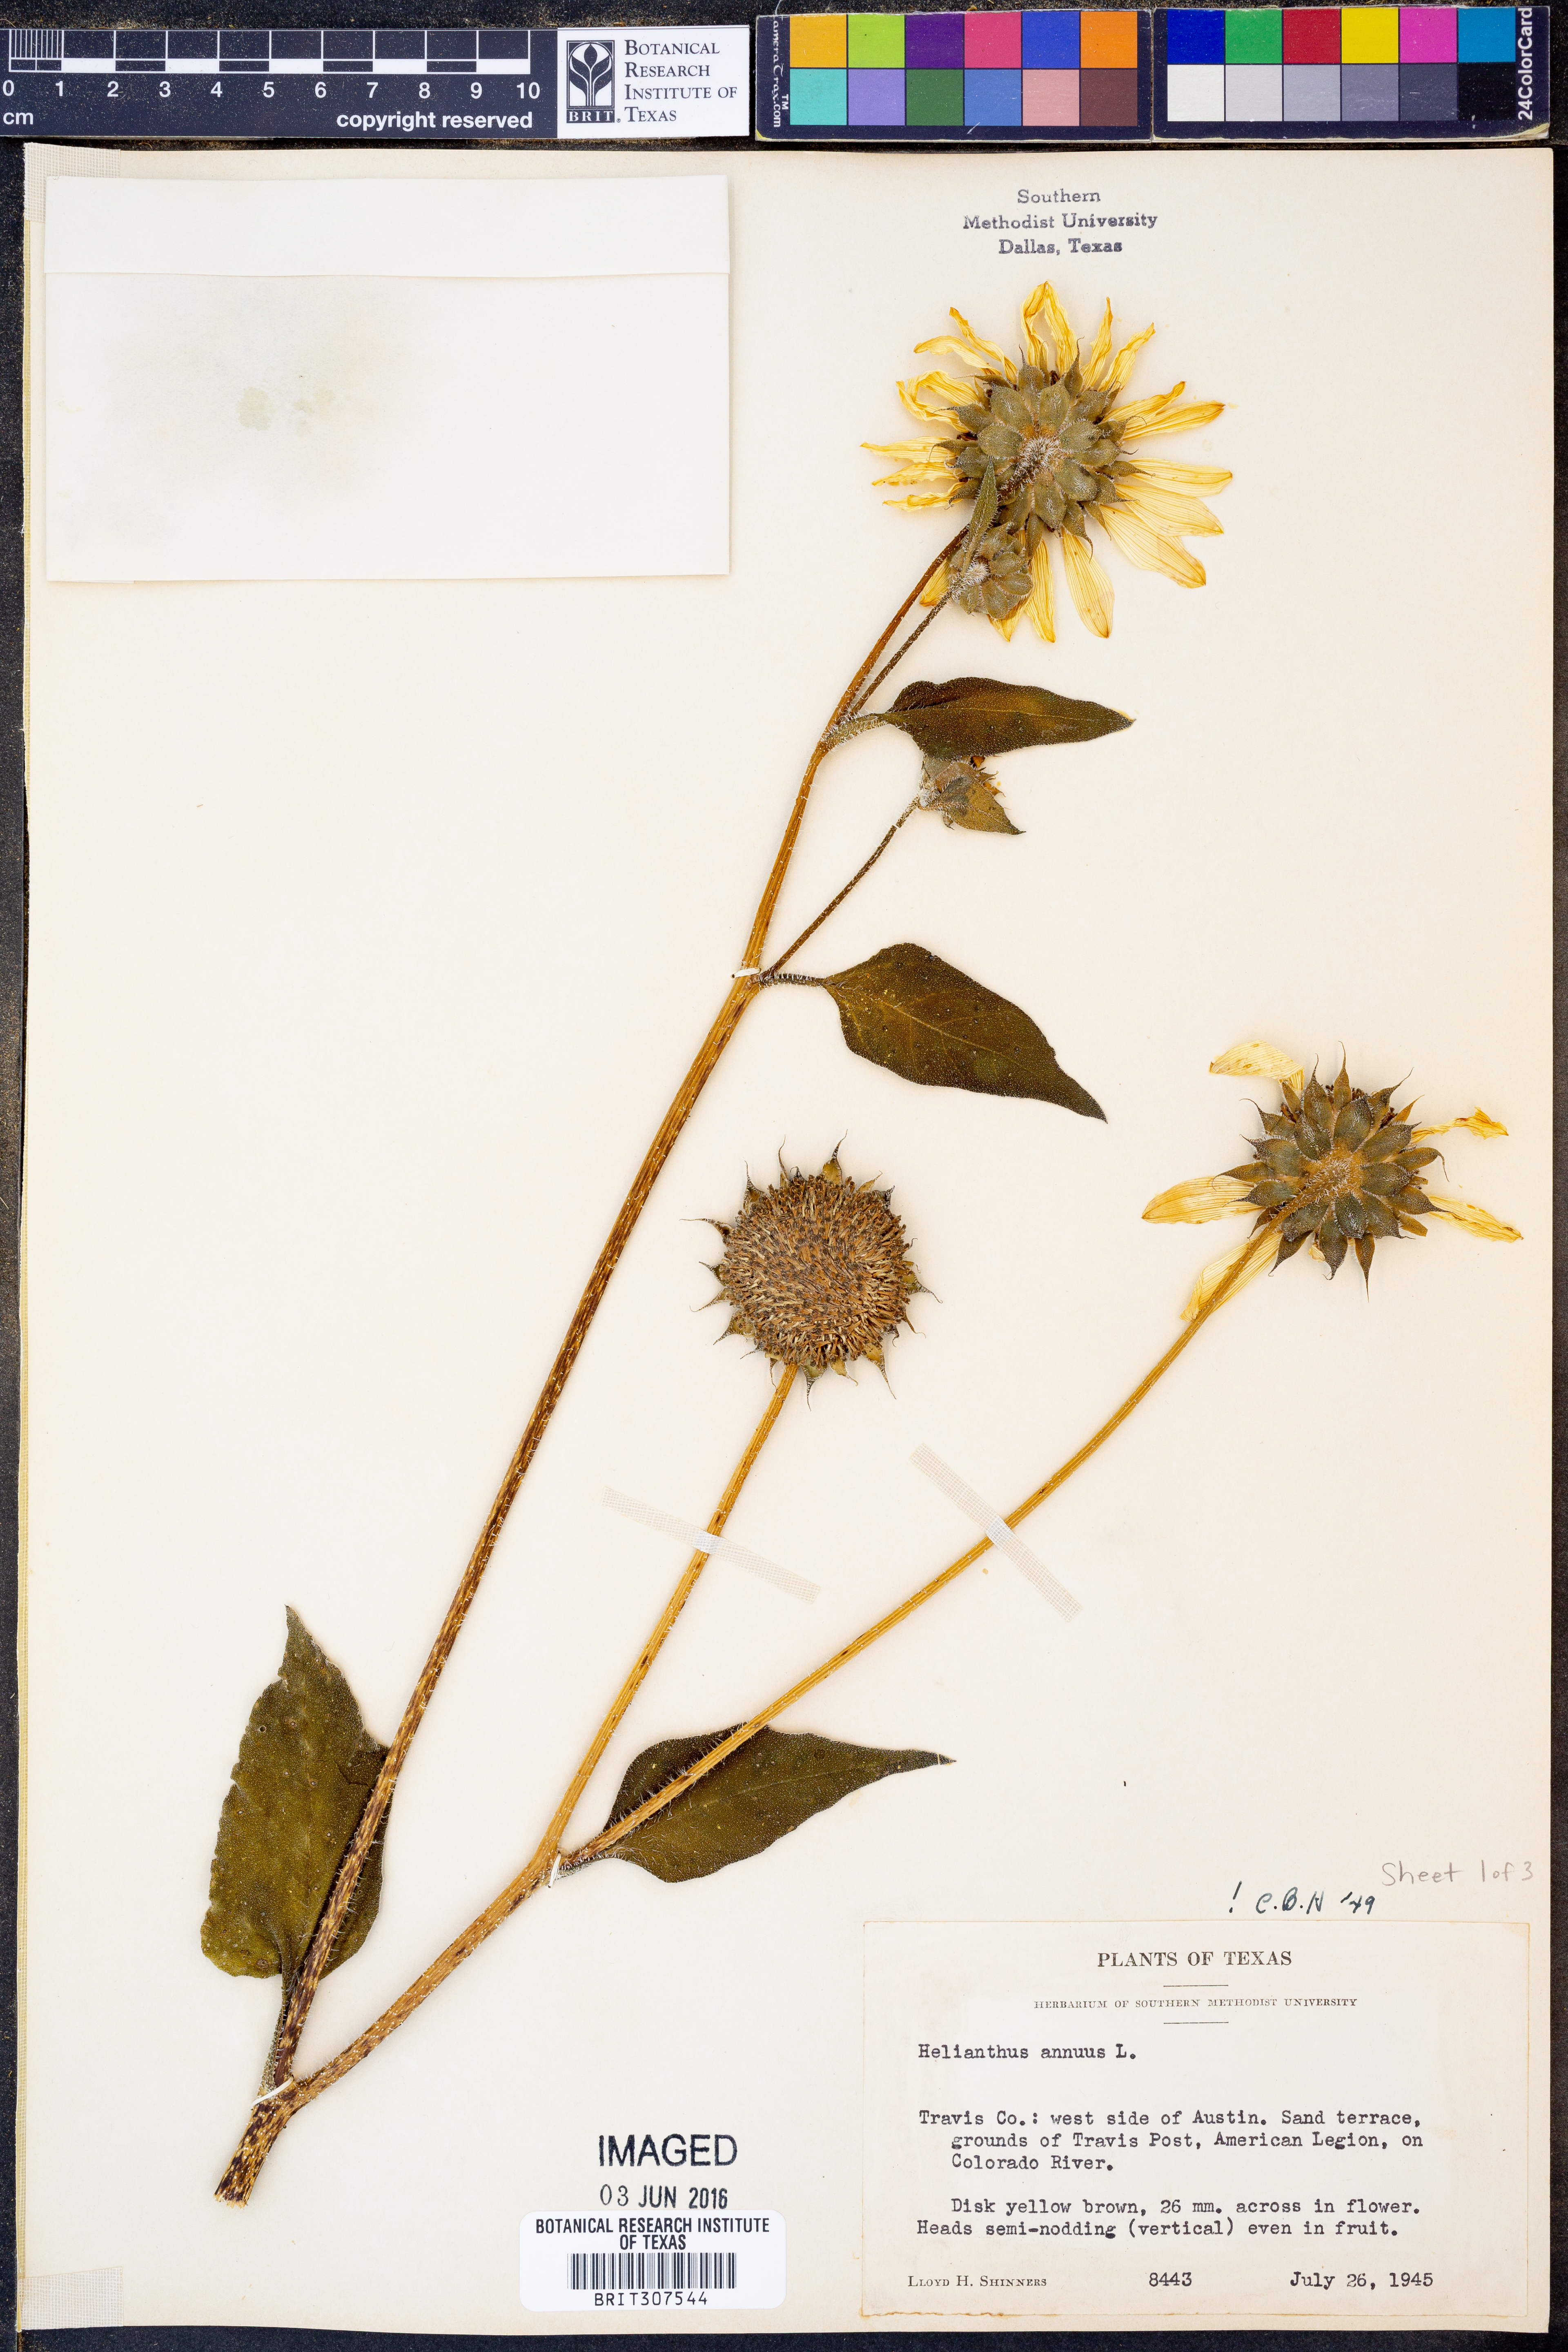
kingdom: Plantae
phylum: Tracheophyta
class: Magnoliopsida
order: Asterales
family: Asteraceae
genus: Helianthus
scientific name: Helianthus annuus
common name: Sunflower
